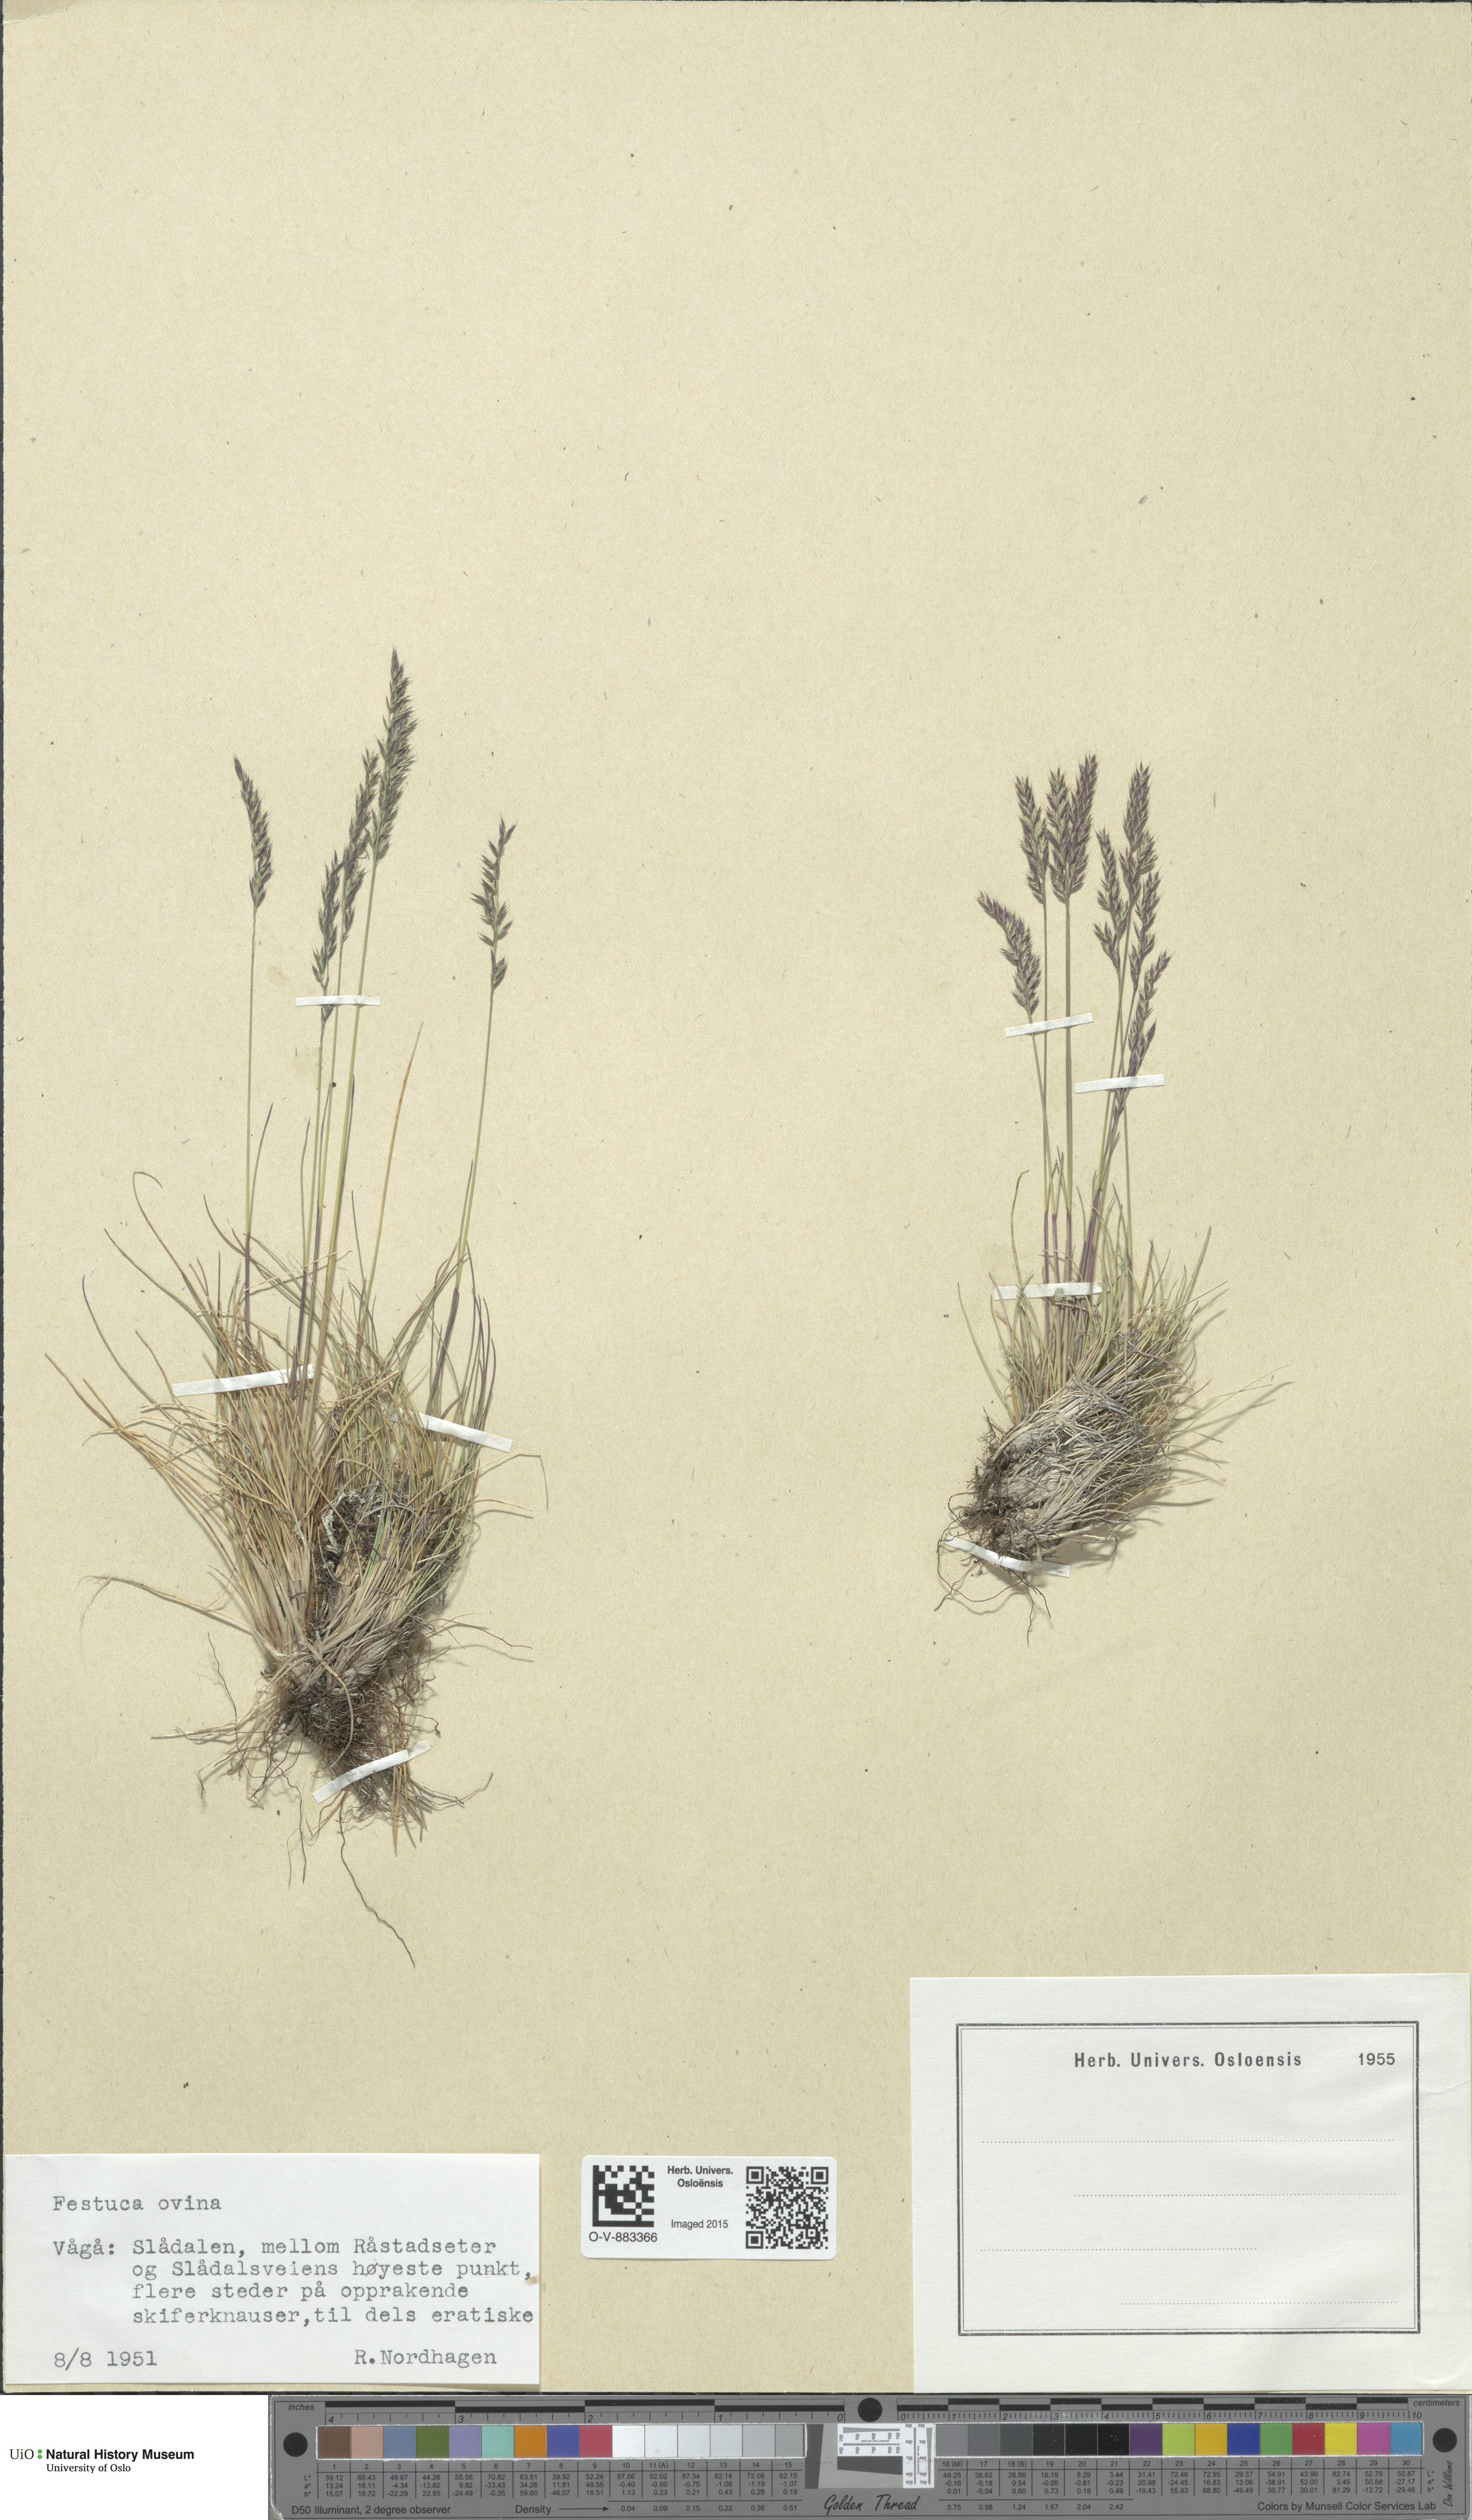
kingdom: Plantae
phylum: Tracheophyta
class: Liliopsida
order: Poales
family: Poaceae
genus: Festuca
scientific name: Festuca ovina
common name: Sheep fescue
